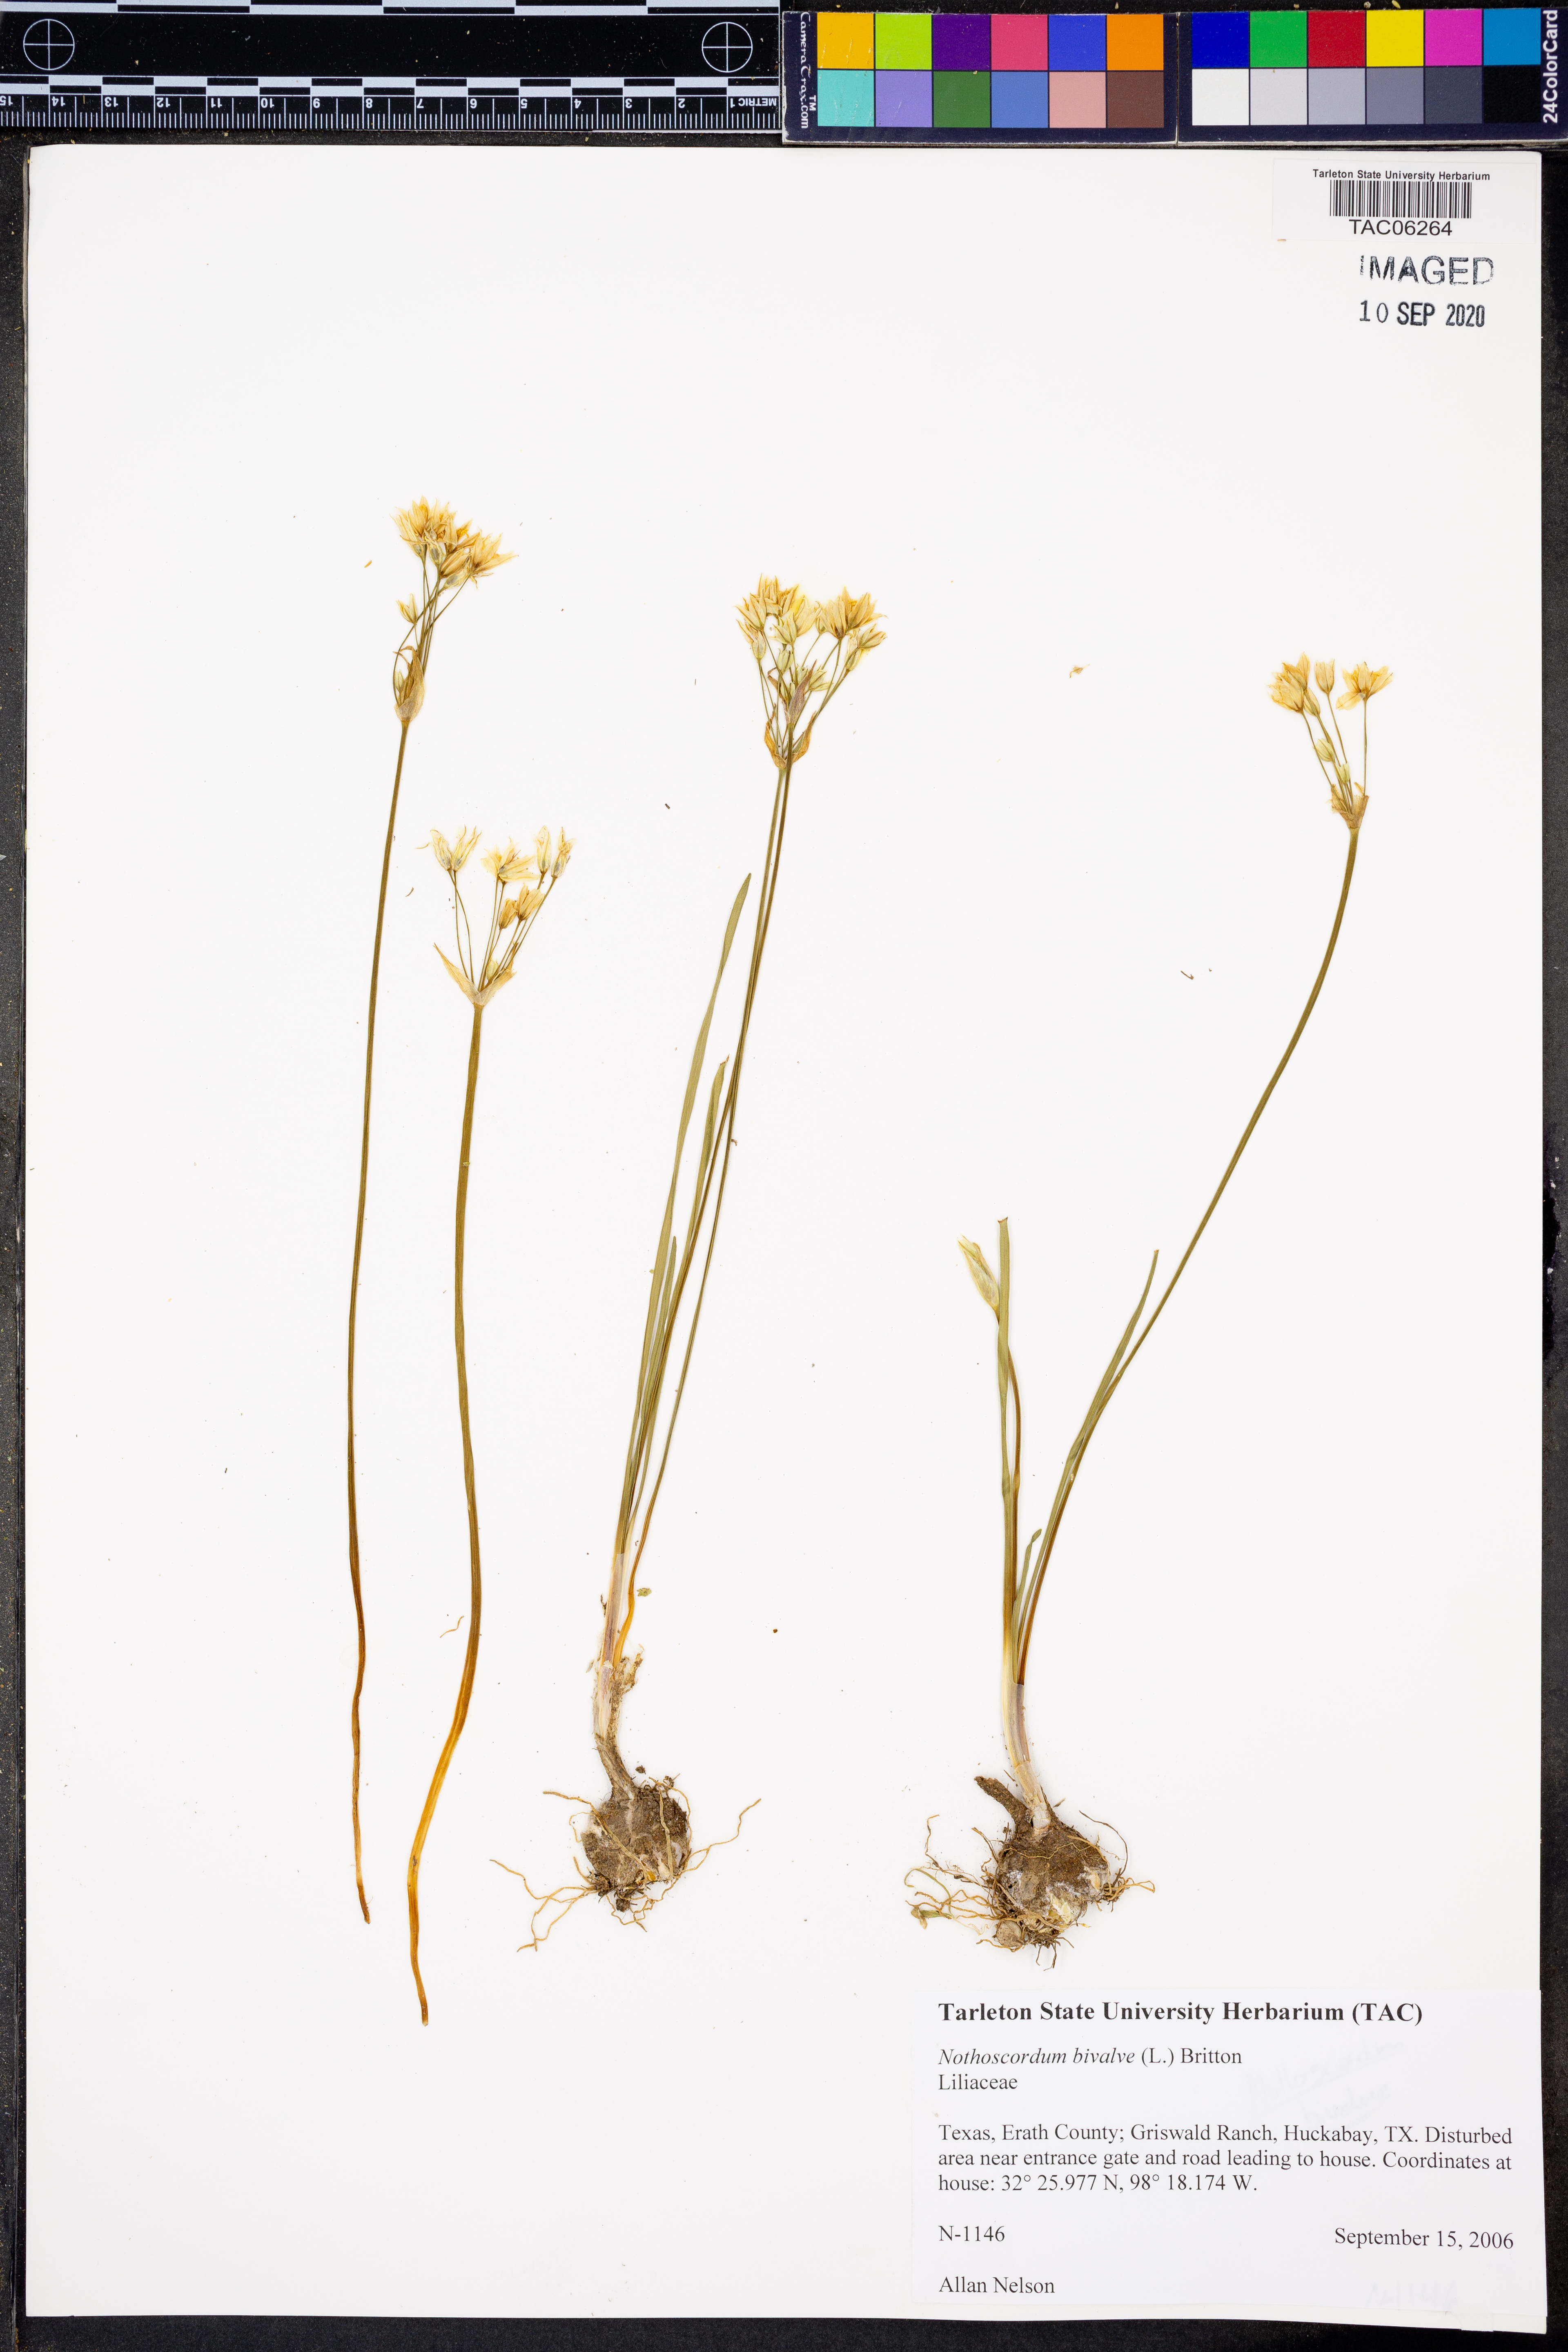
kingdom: Plantae
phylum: Tracheophyta
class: Liliopsida
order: Asparagales
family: Amaryllidaceae
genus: Nothoscordum
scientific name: Nothoscordum bivalve
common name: Crow-poison
